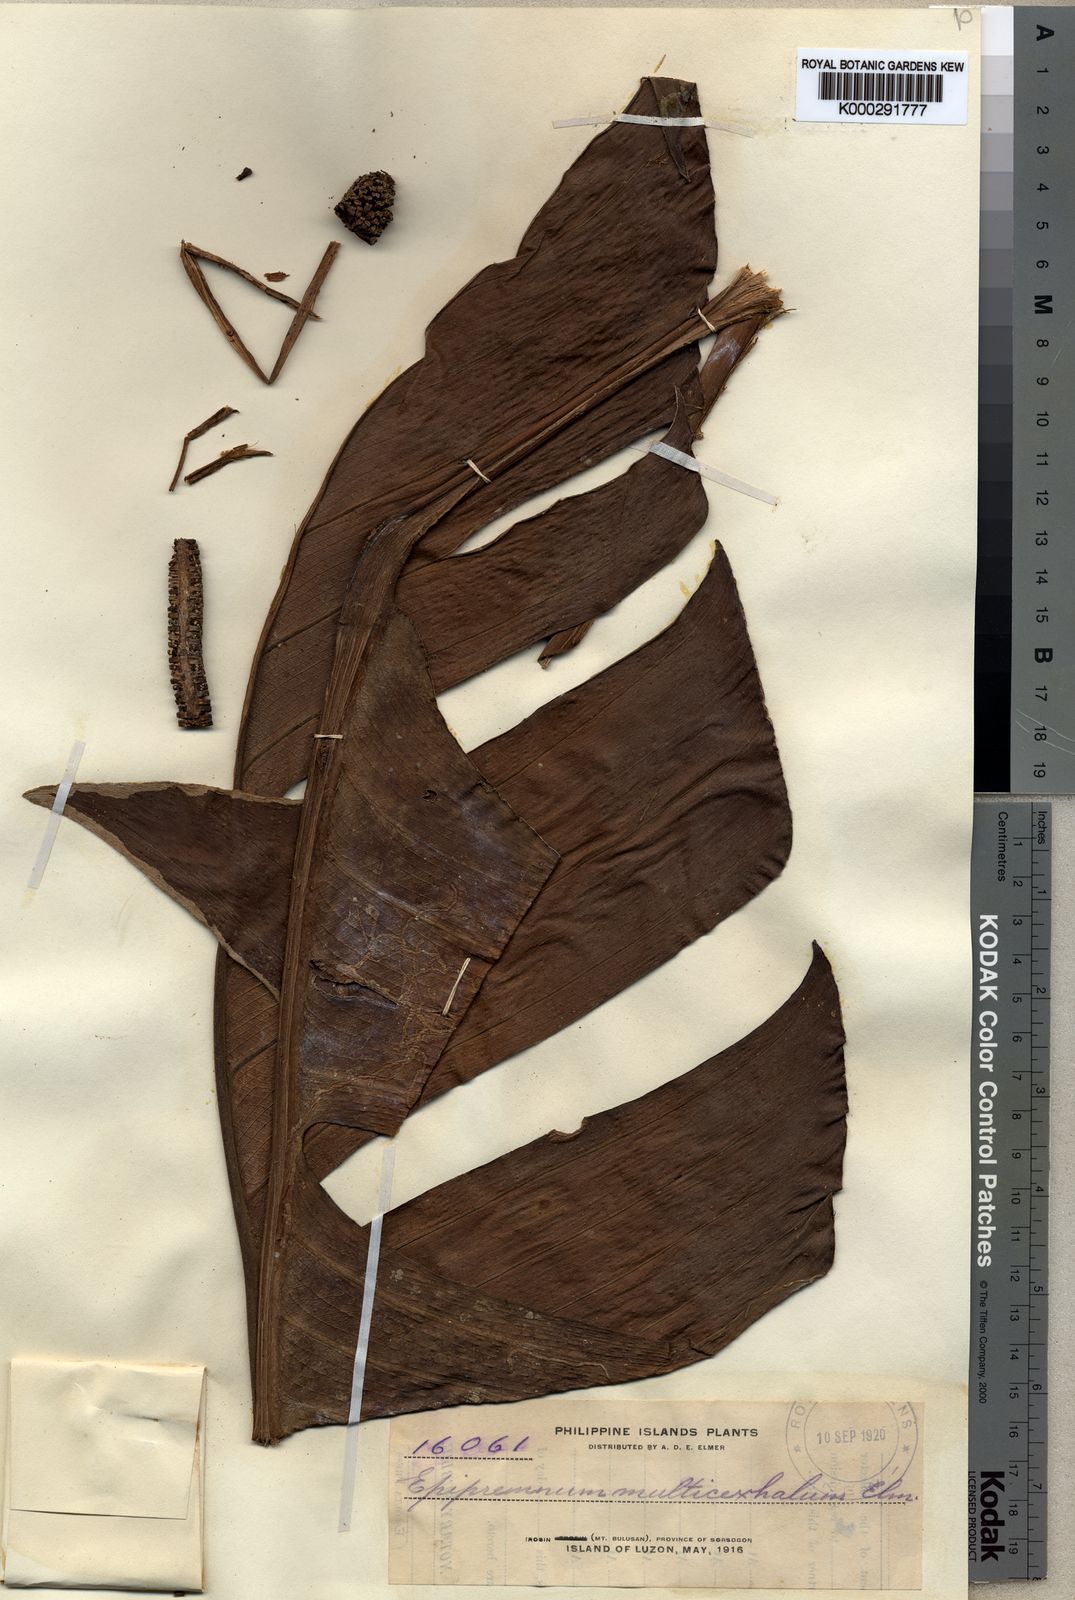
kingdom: Plantae
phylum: Tracheophyta
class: Liliopsida
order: Alismatales
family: Araceae
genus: Rhaphidophora
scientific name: Rhaphidophora korthalsii
